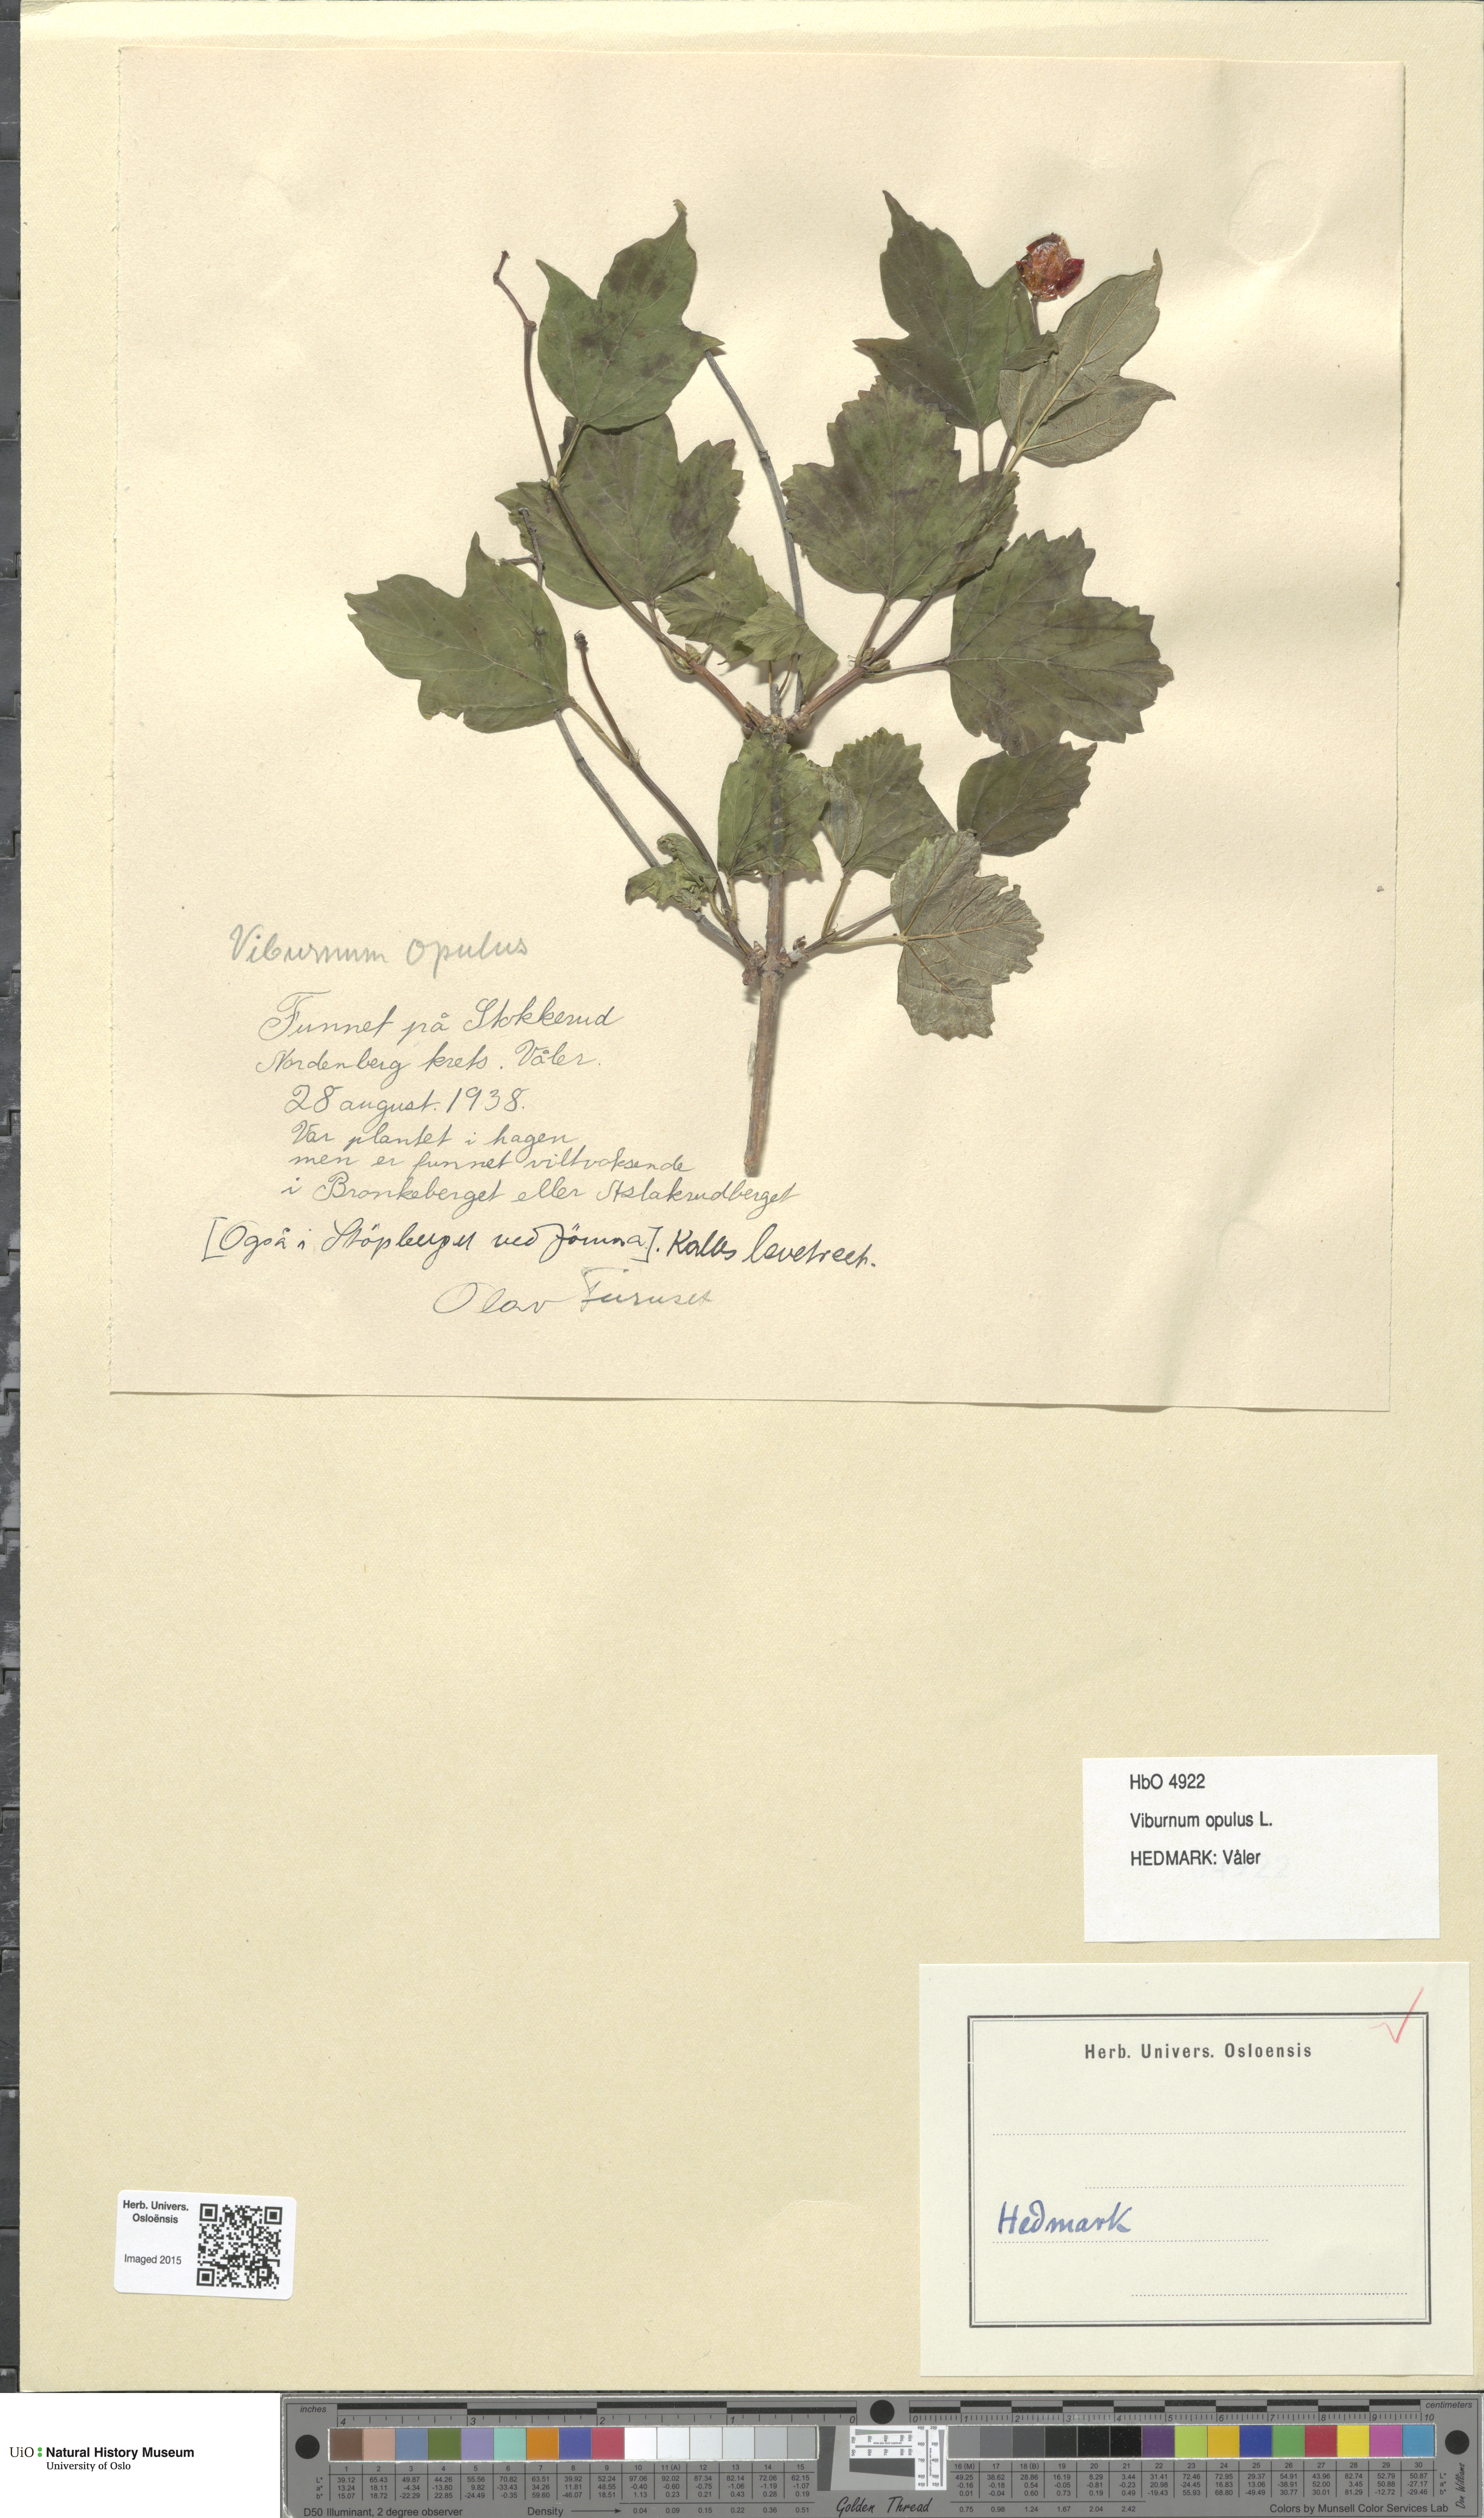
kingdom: Plantae
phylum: Tracheophyta
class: Magnoliopsida
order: Dipsacales
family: Viburnaceae
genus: Viburnum
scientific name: Viburnum opulus
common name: Guelder-rose
